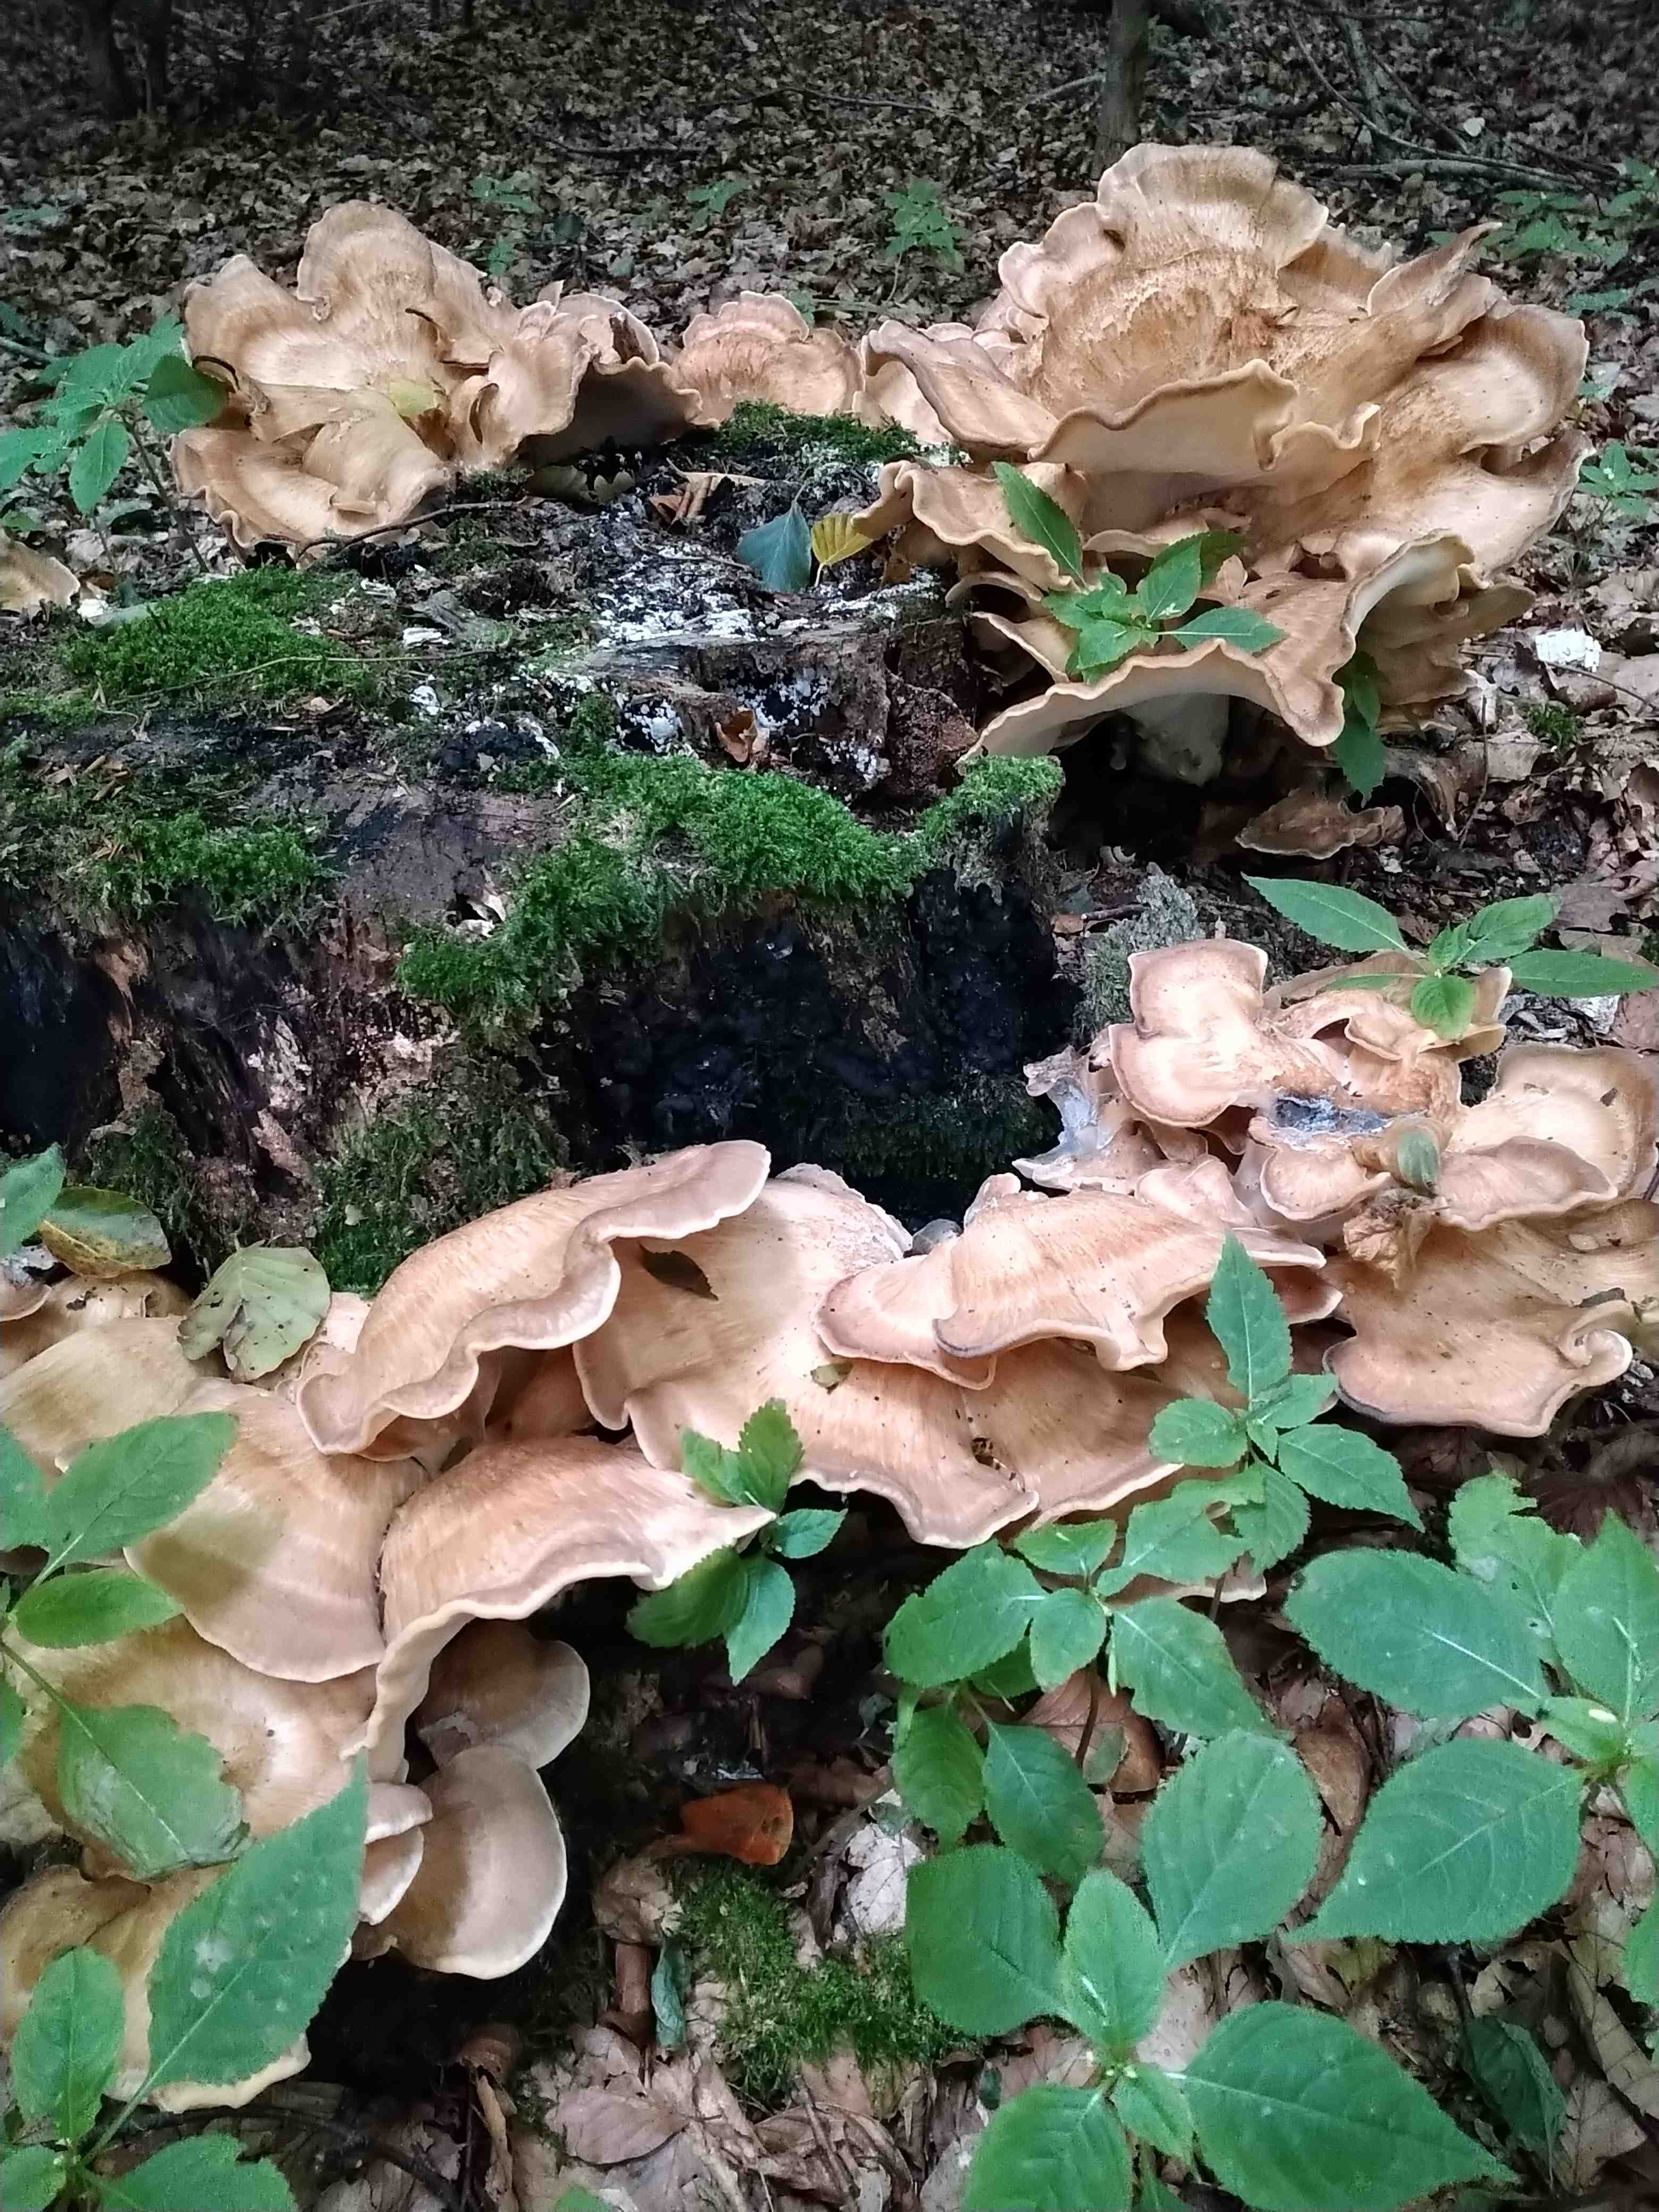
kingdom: Fungi
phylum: Basidiomycota
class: Agaricomycetes
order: Polyporales
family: Meripilaceae
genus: Meripilus
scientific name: Meripilus giganteus
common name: kæmpeporesvamp
